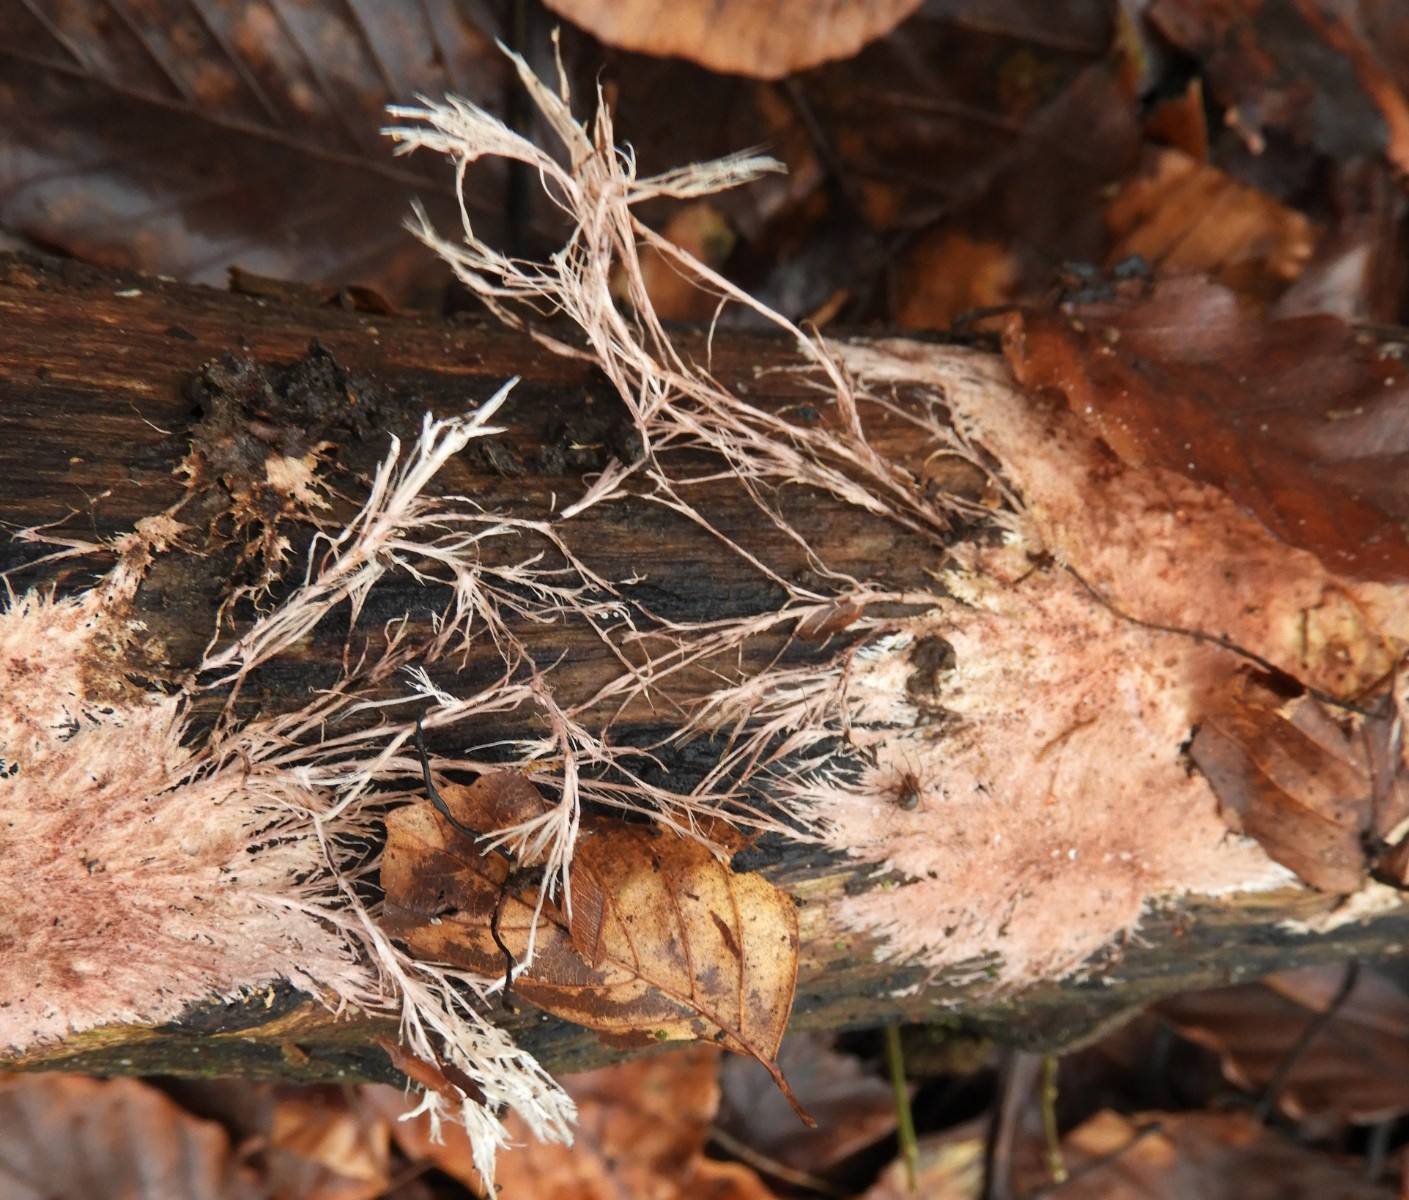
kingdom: Fungi
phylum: Basidiomycota
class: Agaricomycetes
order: Polyporales
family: Steccherinaceae
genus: Steccherinum
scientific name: Steccherinum fimbriatum
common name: trådet skønpig
